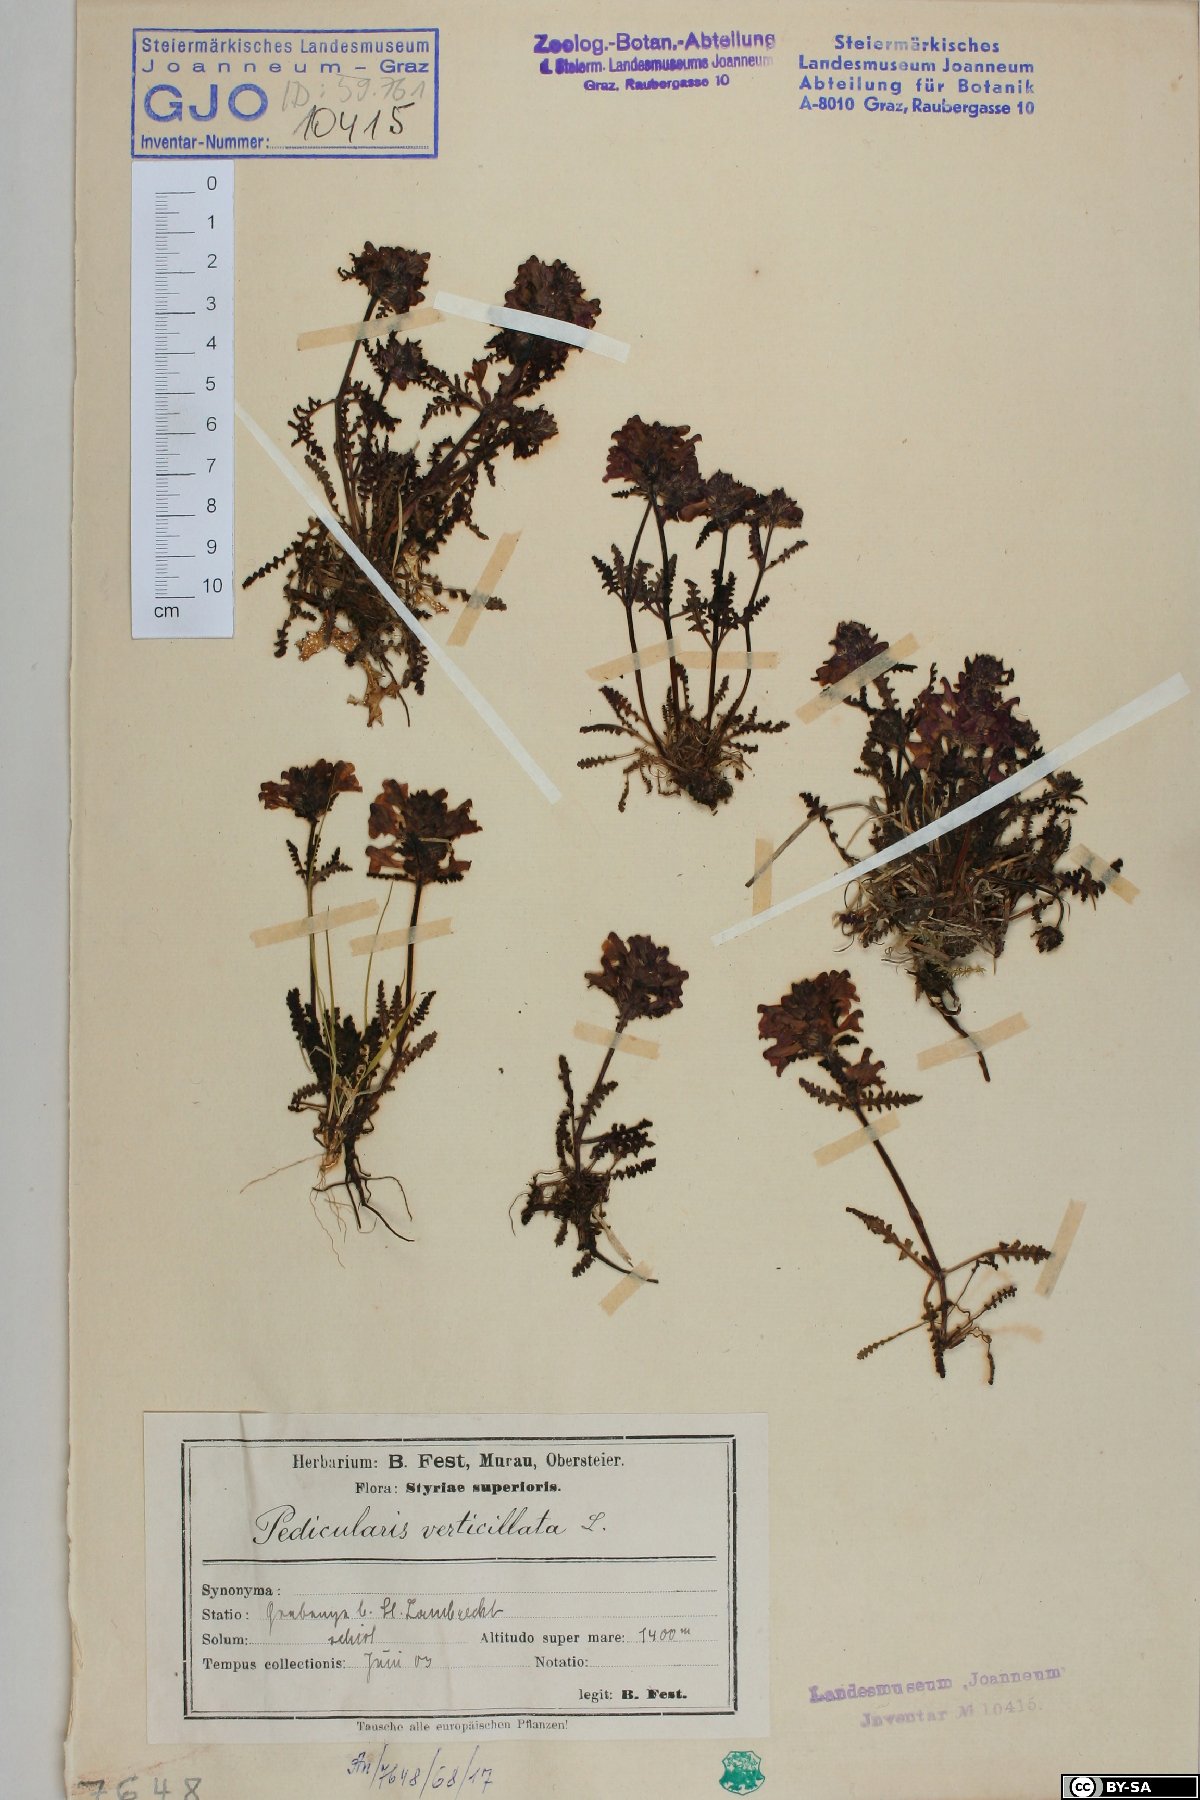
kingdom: Plantae
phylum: Tracheophyta
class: Magnoliopsida
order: Lamiales
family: Orobanchaceae
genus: Pedicularis
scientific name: Pedicularis verticillata
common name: Whorled lousewort
